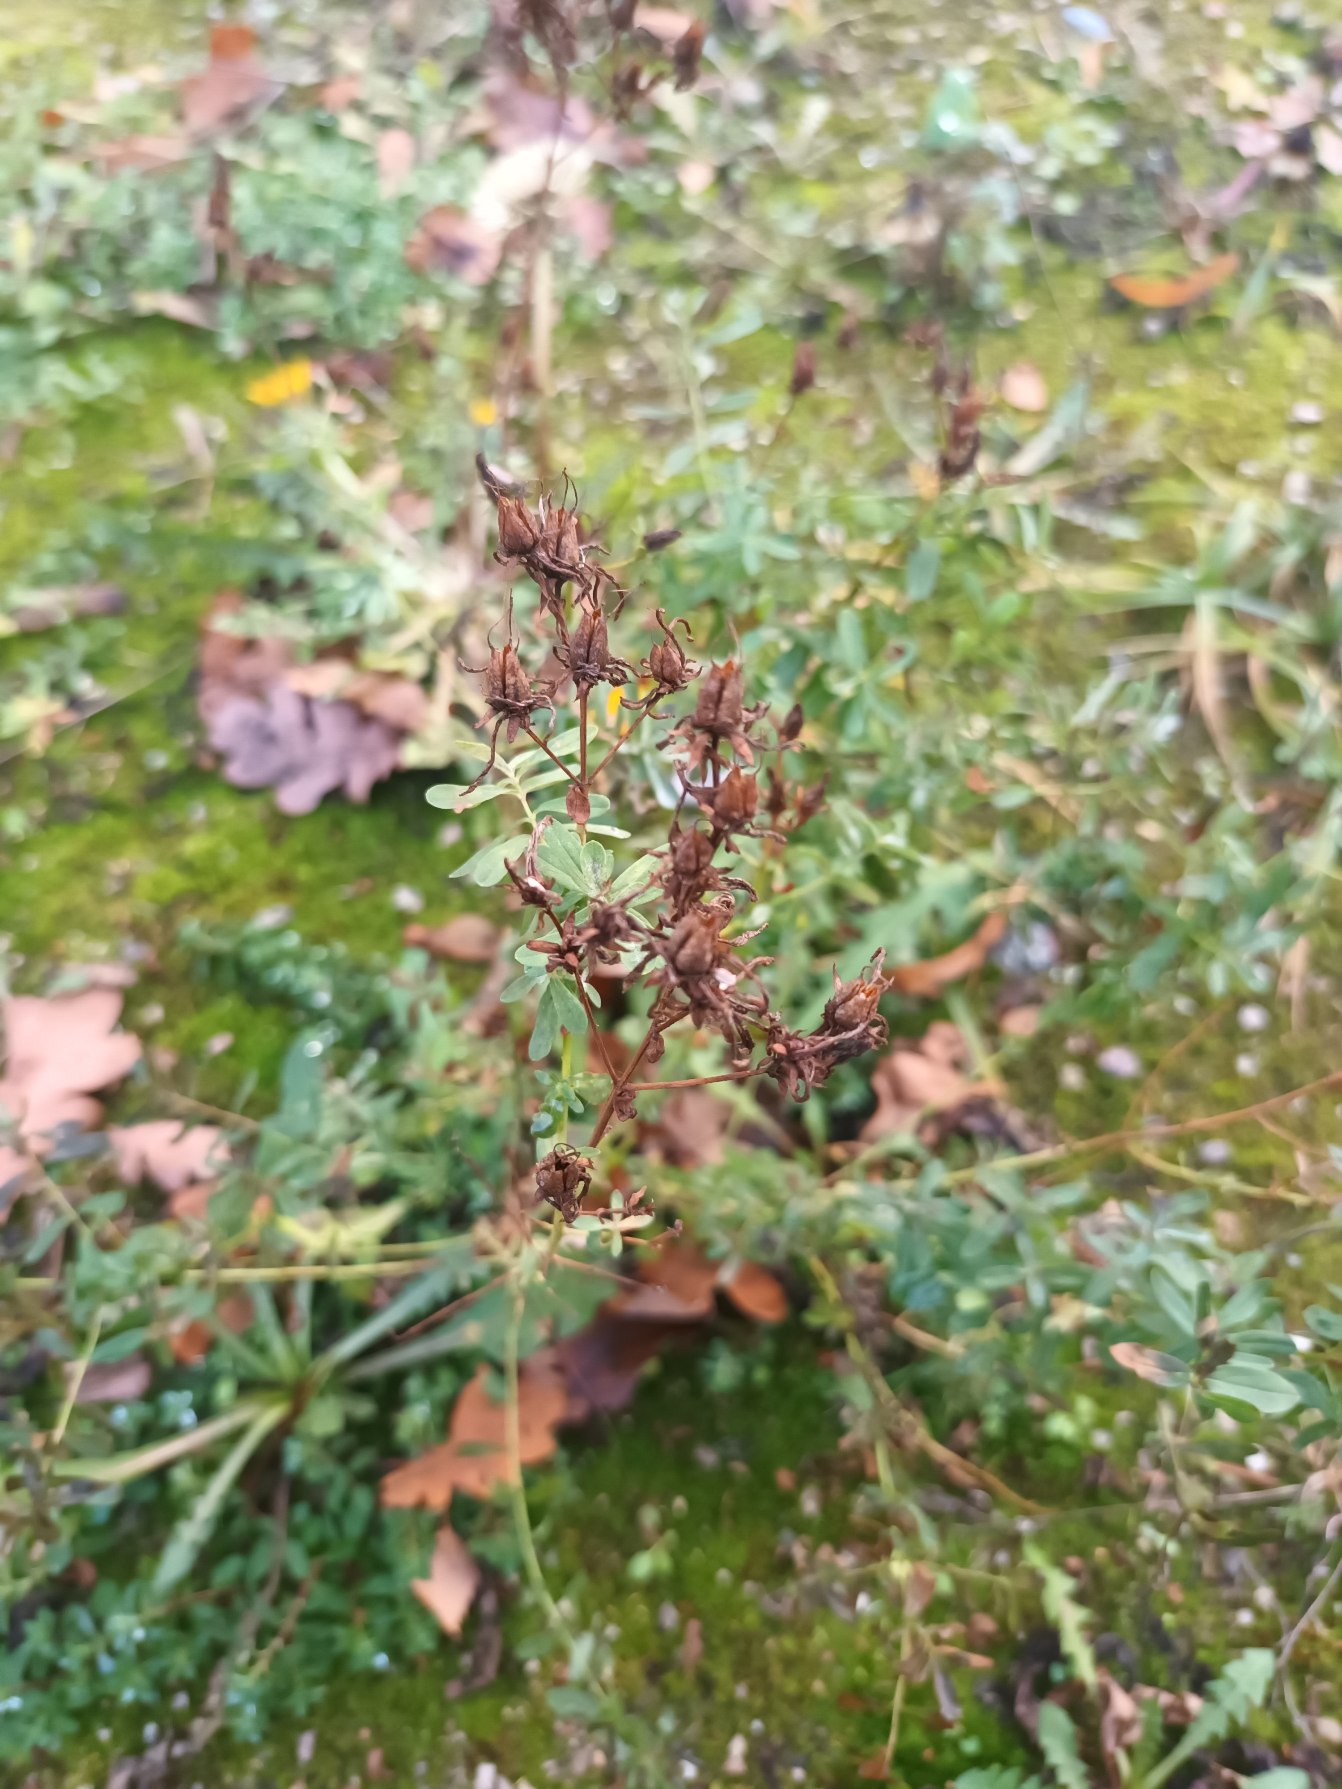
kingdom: Plantae
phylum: Tracheophyta
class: Magnoliopsida
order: Malpighiales
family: Hypericaceae
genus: Hypericum
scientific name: Hypericum perforatum
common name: Prikbladet perikon
